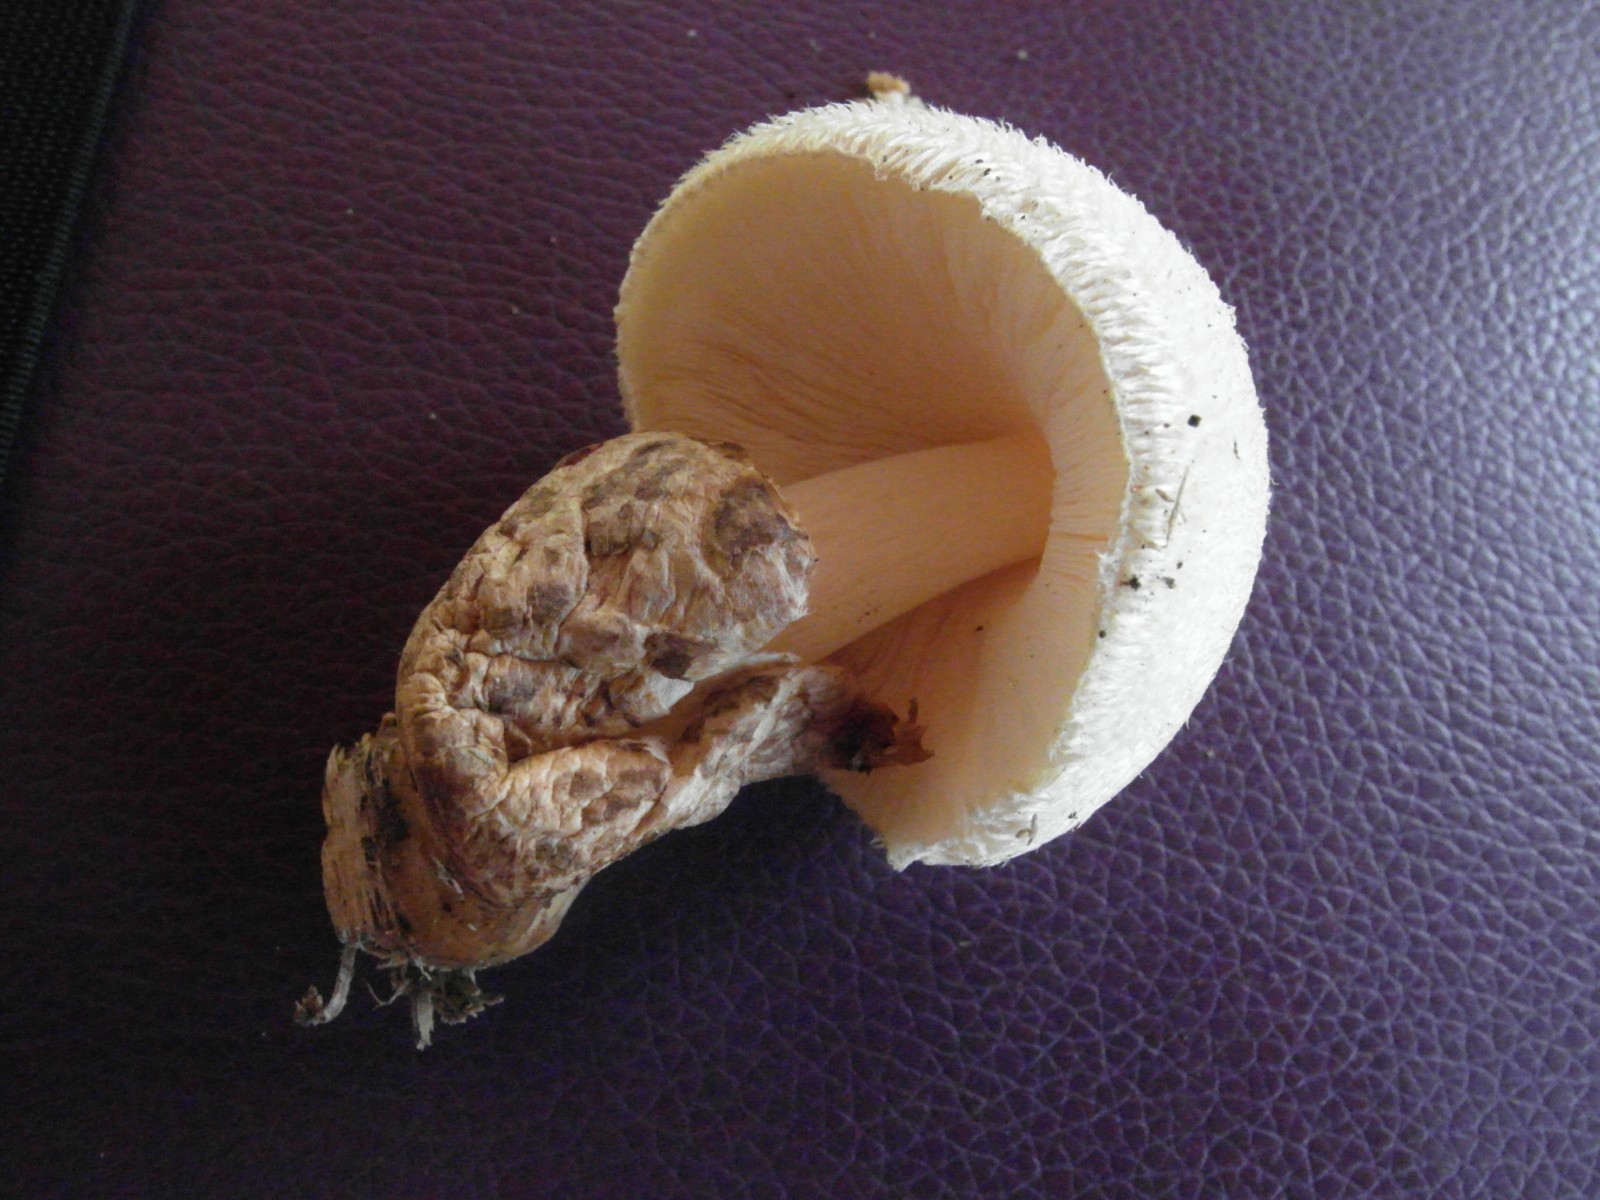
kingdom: Fungi
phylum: Basidiomycota
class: Agaricomycetes
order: Agaricales
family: Pluteaceae
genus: Volvariella
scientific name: Volvariella bombycina
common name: silkehåret posesvamp
